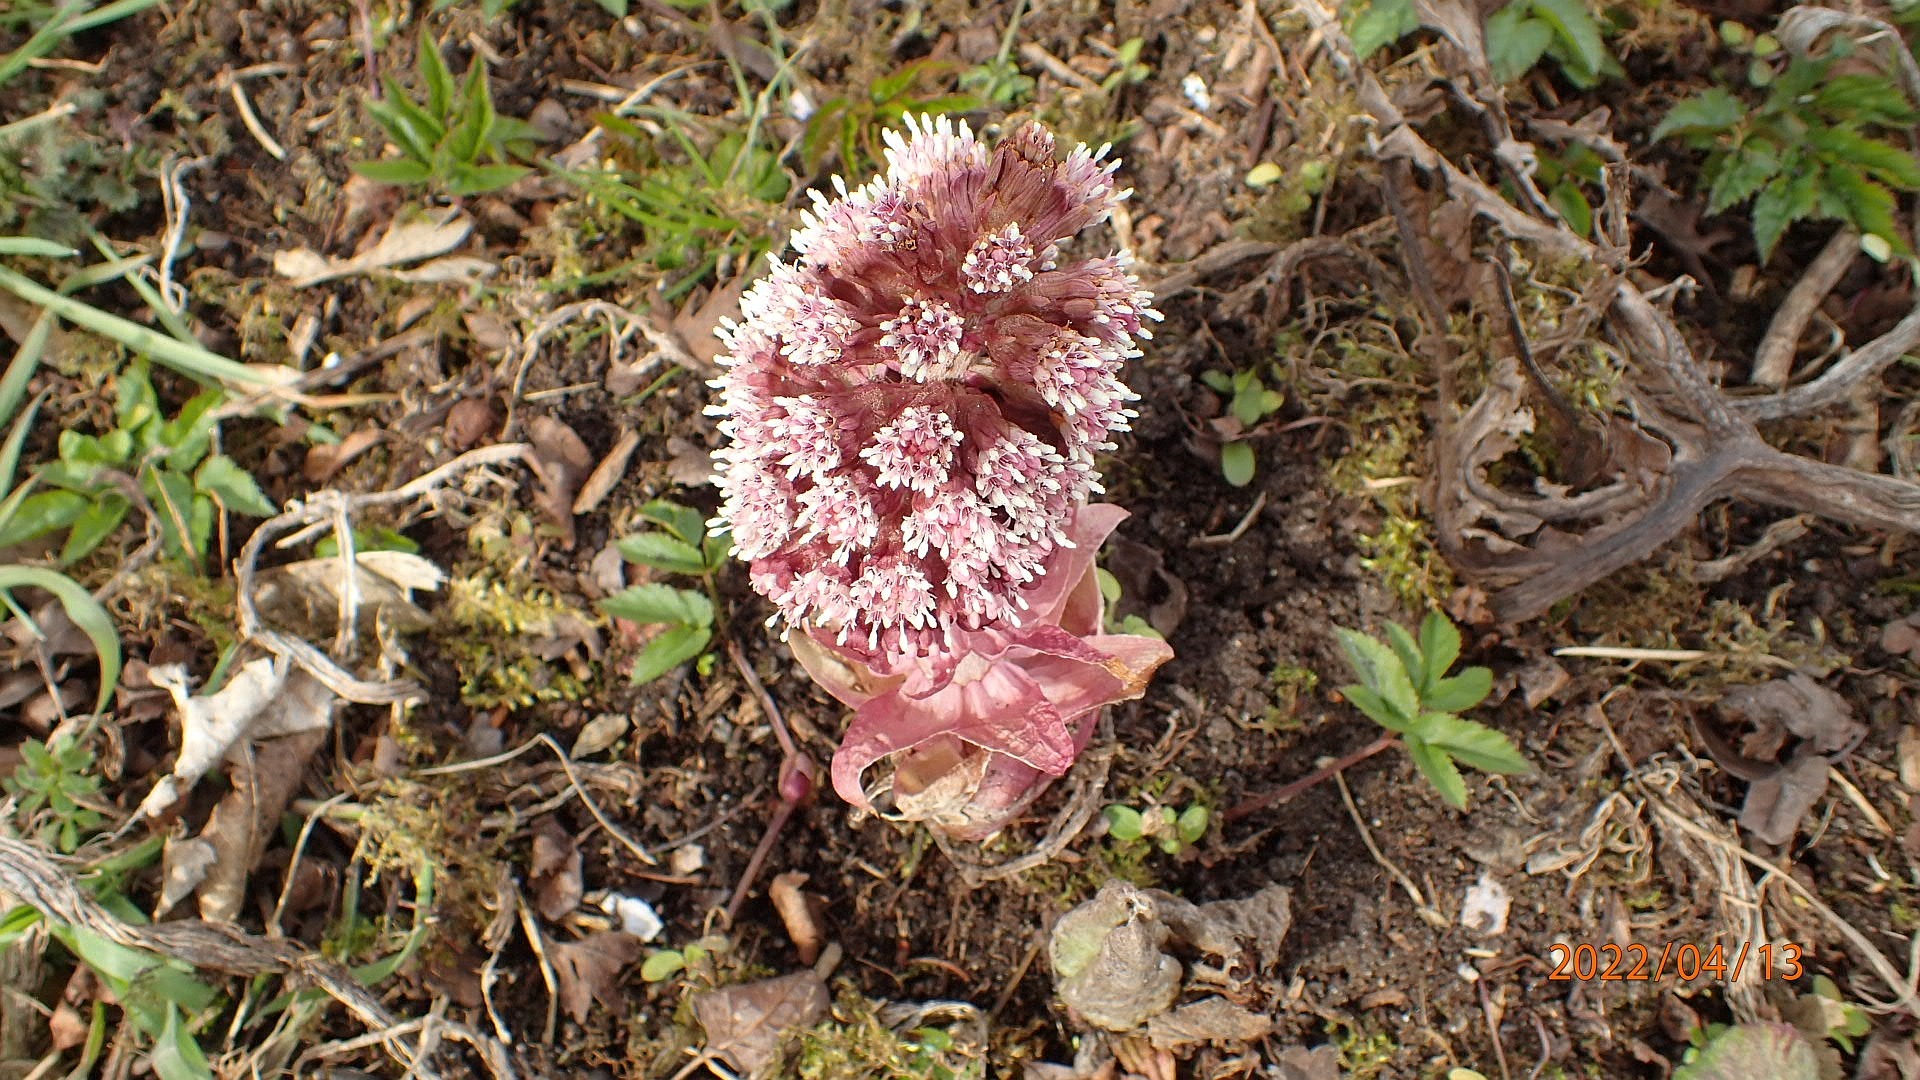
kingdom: Plantae
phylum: Tracheophyta
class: Magnoliopsida
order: Asterales
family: Asteraceae
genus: Petasites
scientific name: Petasites hybridus
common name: Rød hestehov
